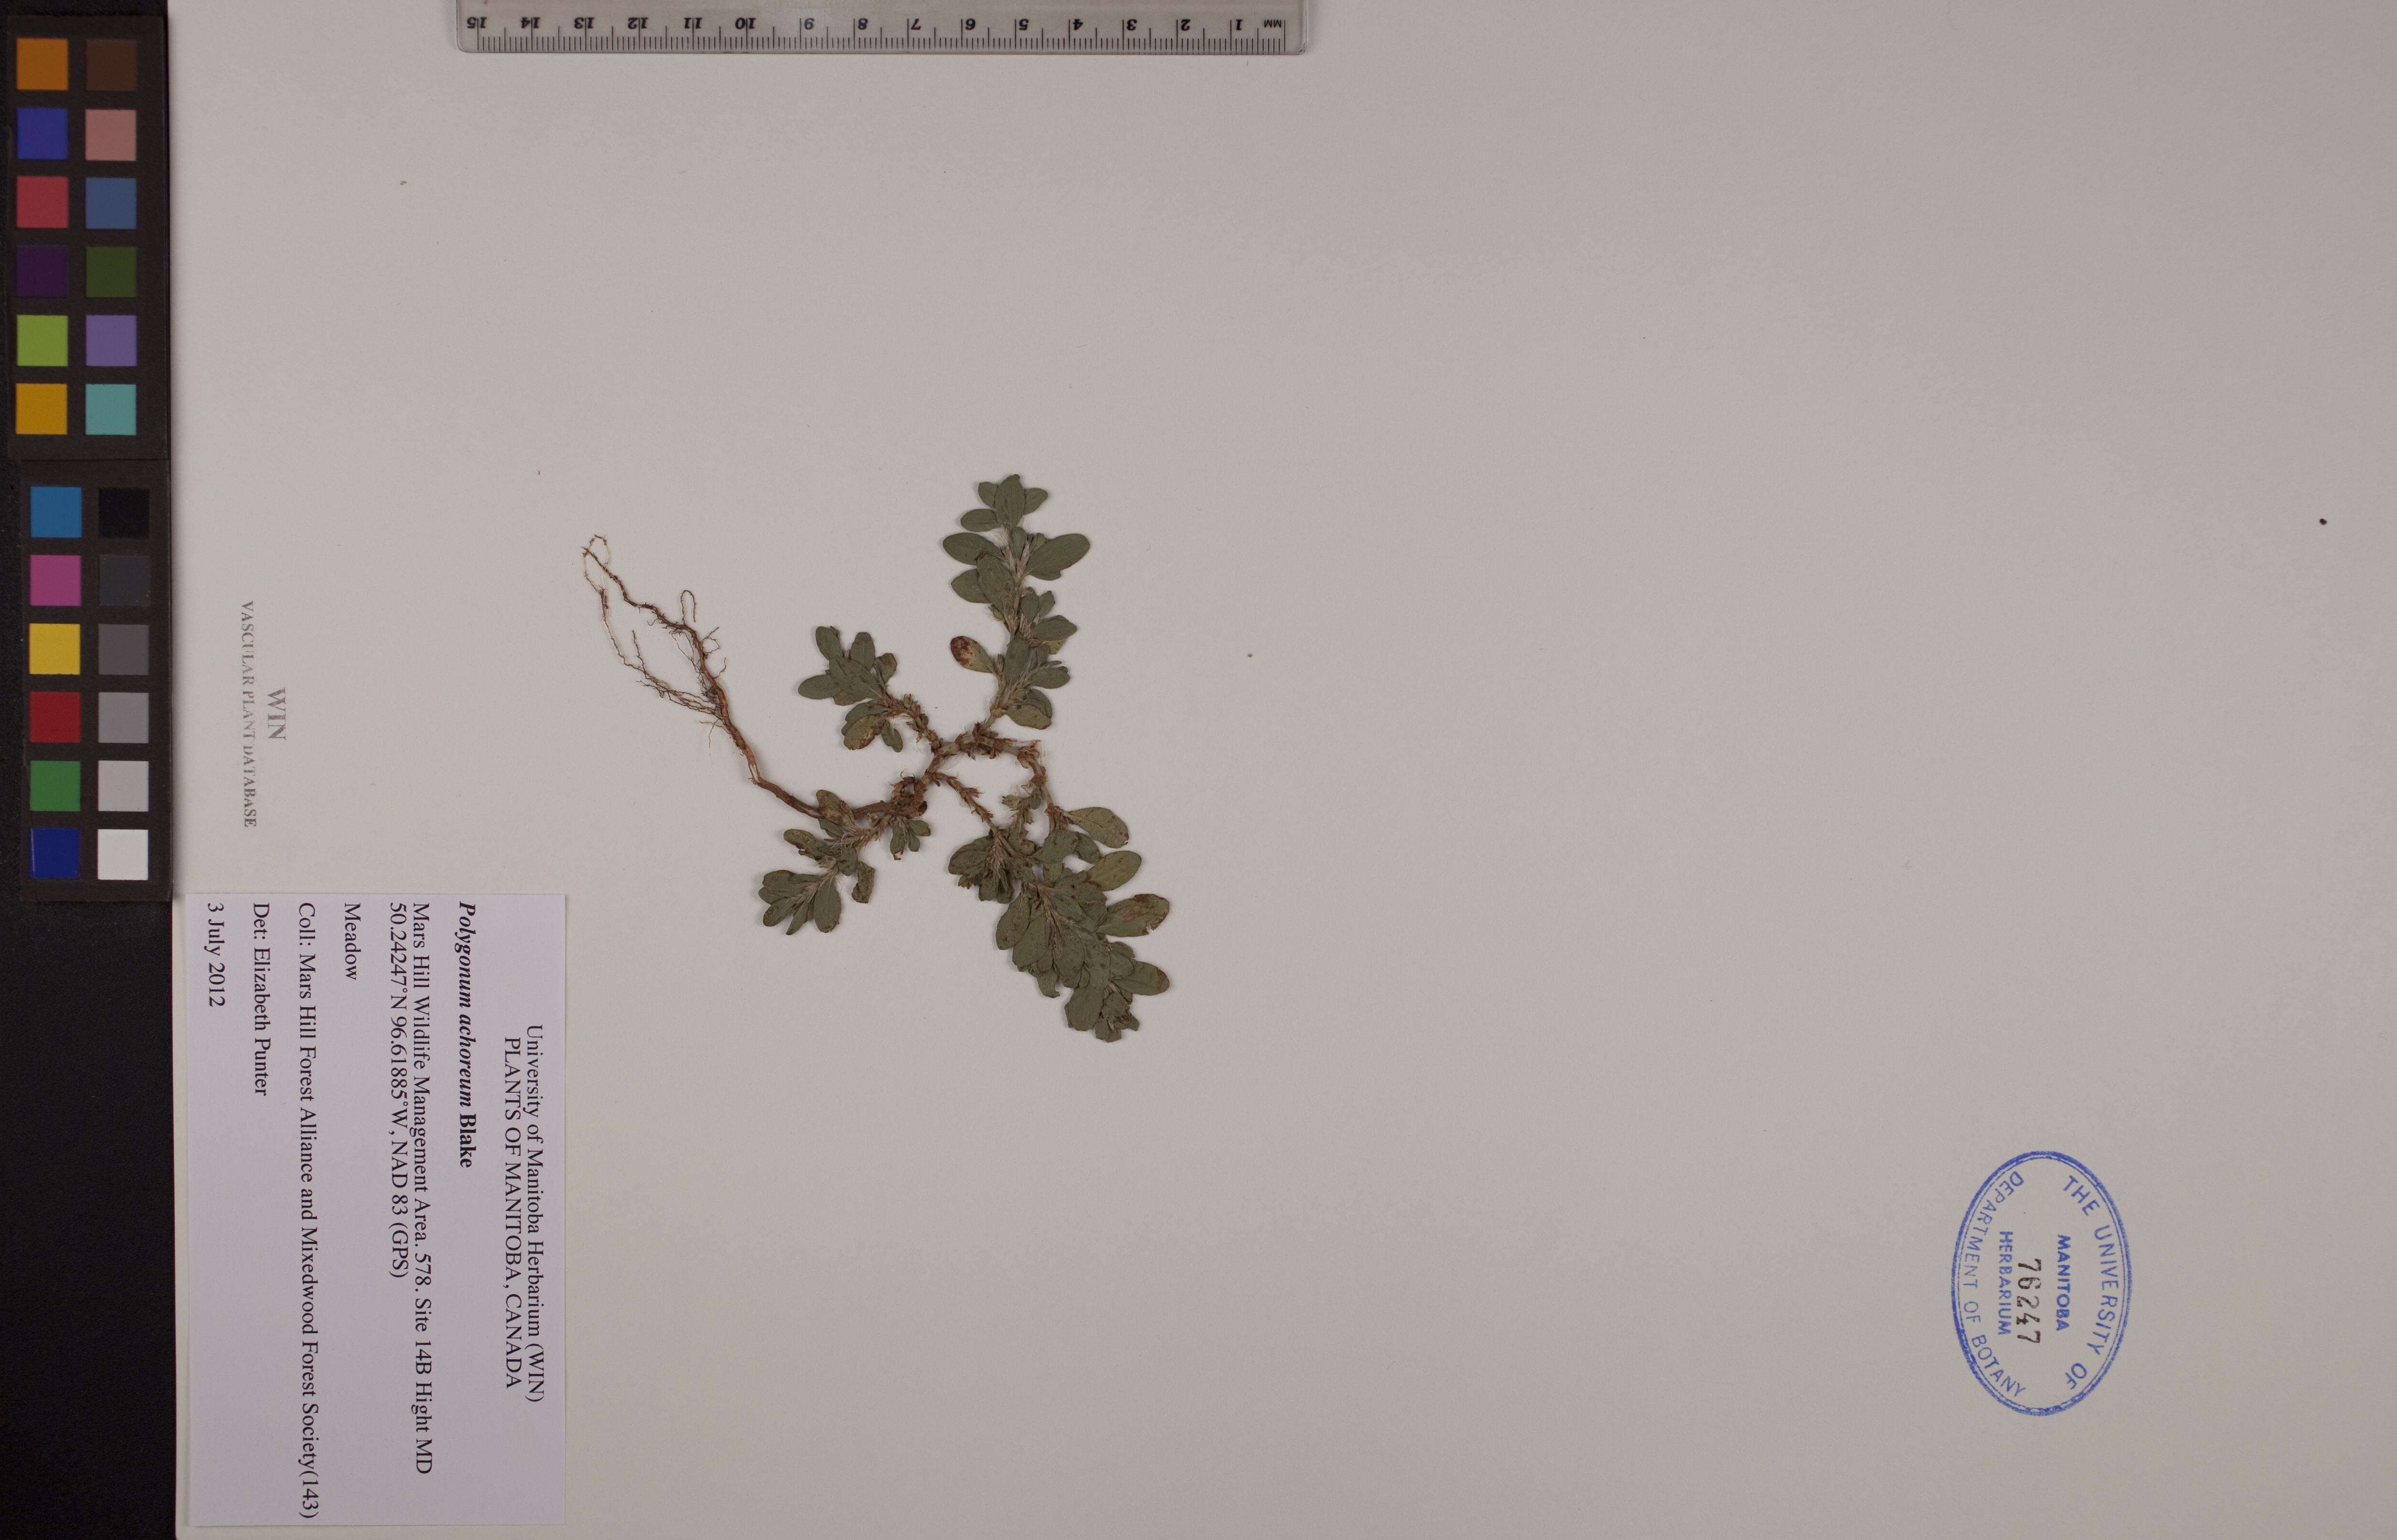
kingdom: Plantae
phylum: Tracheophyta
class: Magnoliopsida
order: Caryophyllales
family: Polygonaceae
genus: Polygonum
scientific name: Polygonum achoreum
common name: Striate knotweed
